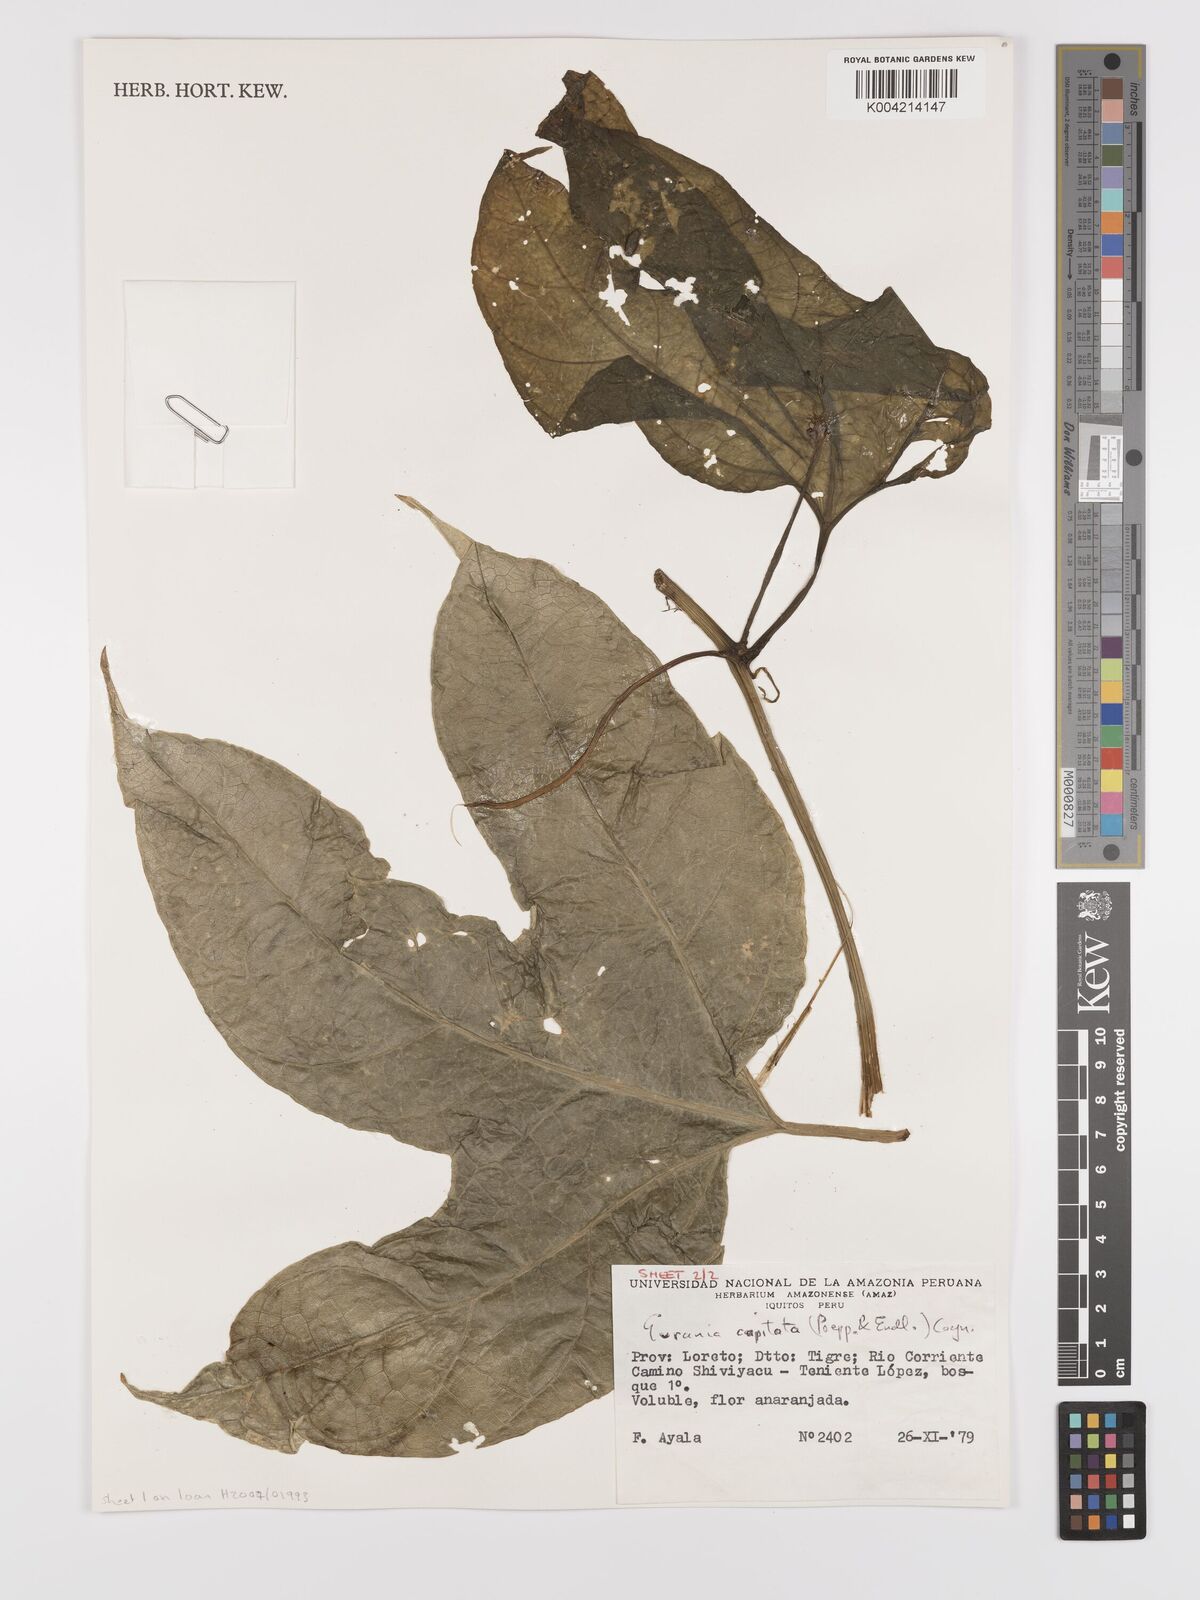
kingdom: Plantae
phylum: Tracheophyta
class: Magnoliopsida
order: Cucurbitales
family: Cucurbitaceae
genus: Gurania
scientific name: Gurania capitata
